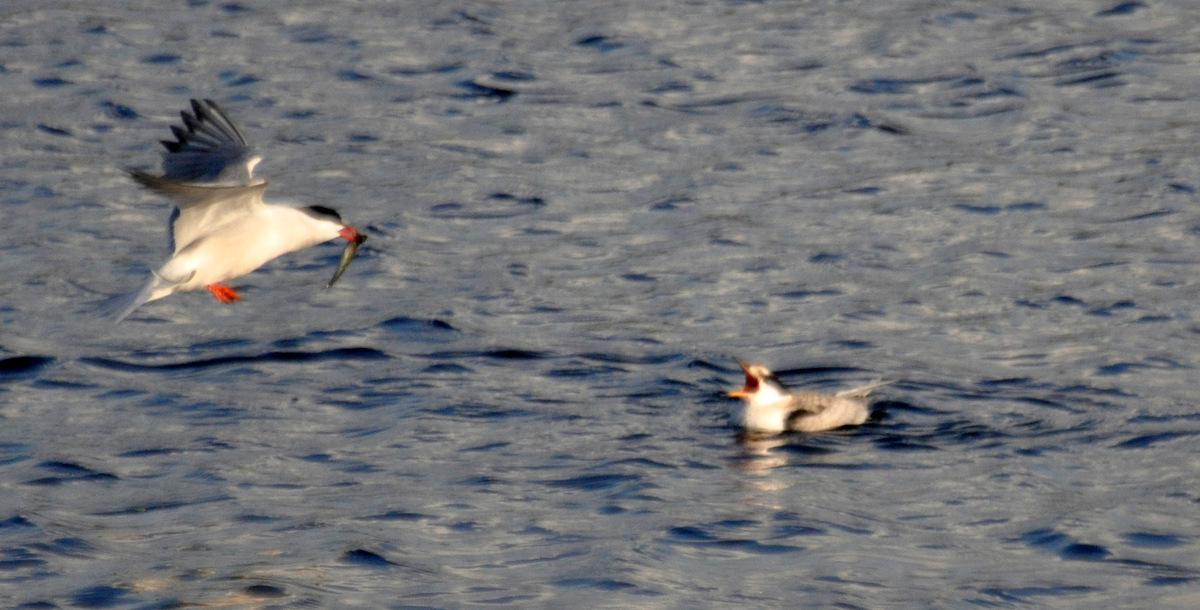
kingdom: Animalia
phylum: Chordata
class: Aves
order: Charadriiformes
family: Laridae
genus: Sterna
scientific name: Sterna hirundo
